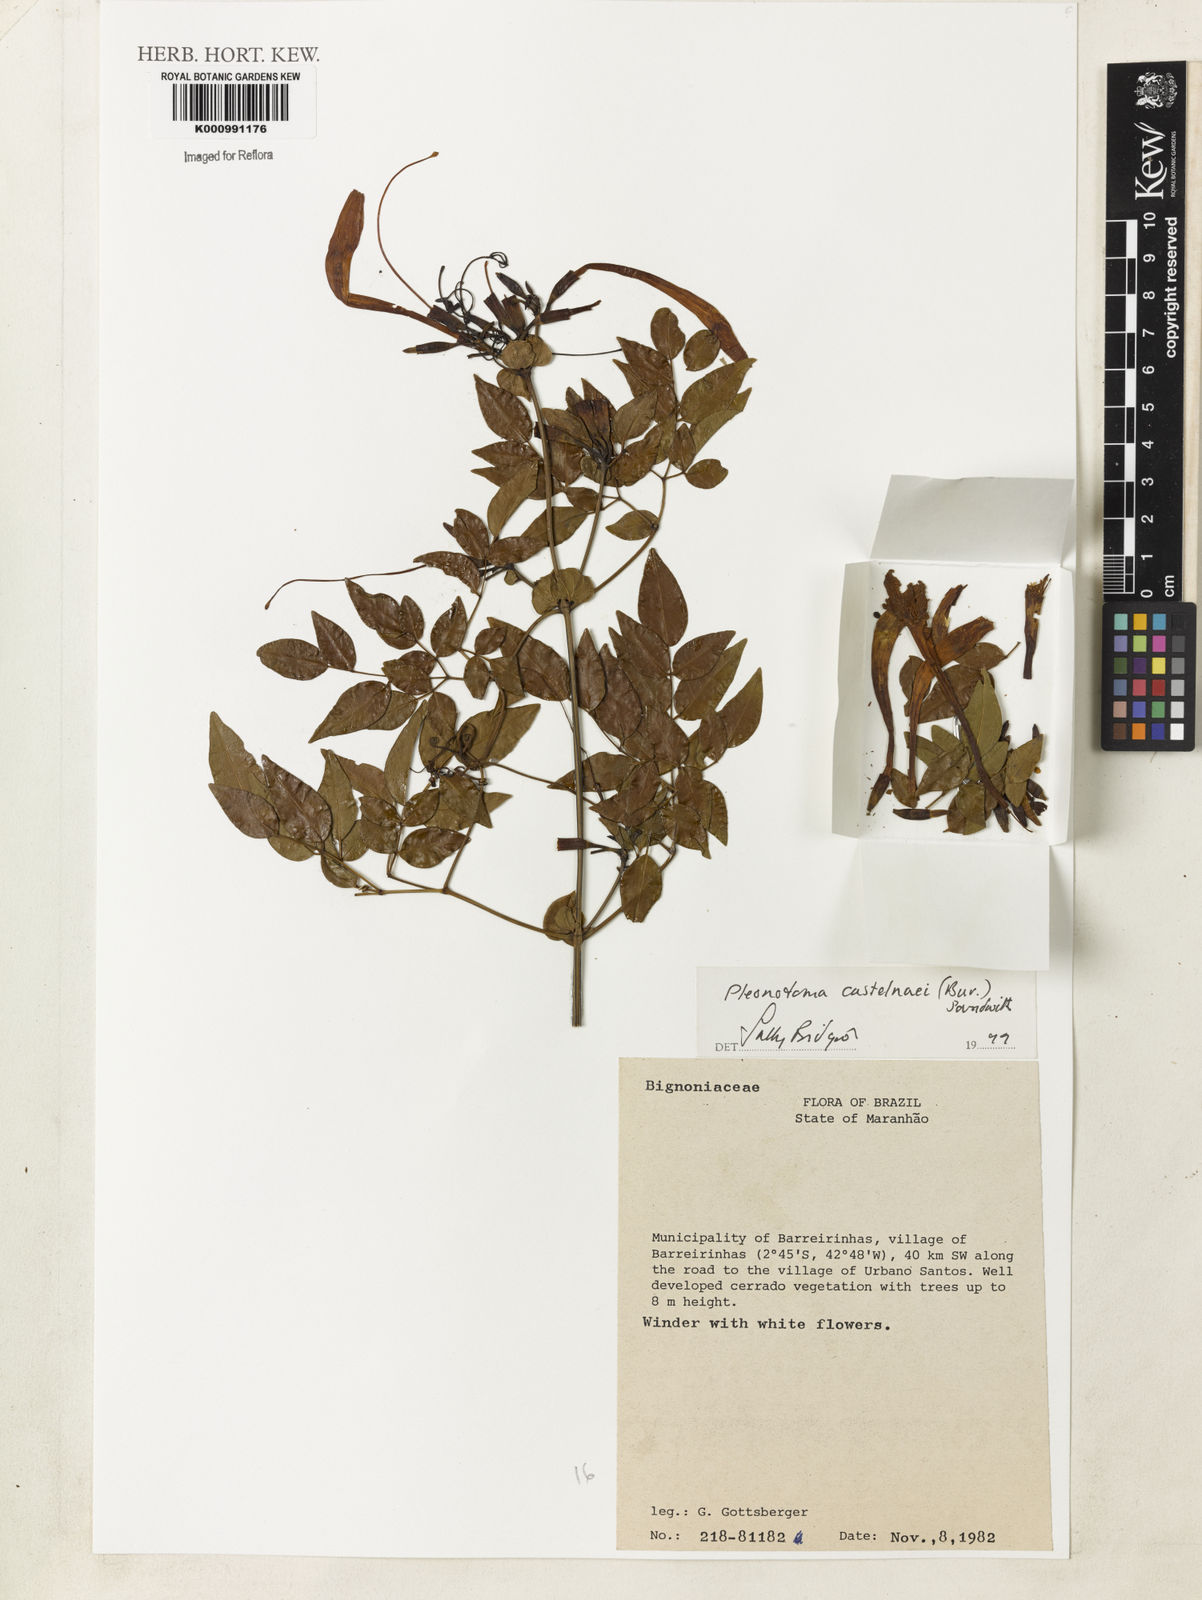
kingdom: Plantae
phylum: Tracheophyta
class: Magnoliopsida
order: Lamiales
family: Bignoniaceae
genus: Pleonotoma
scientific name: Pleonotoma castelnaei
